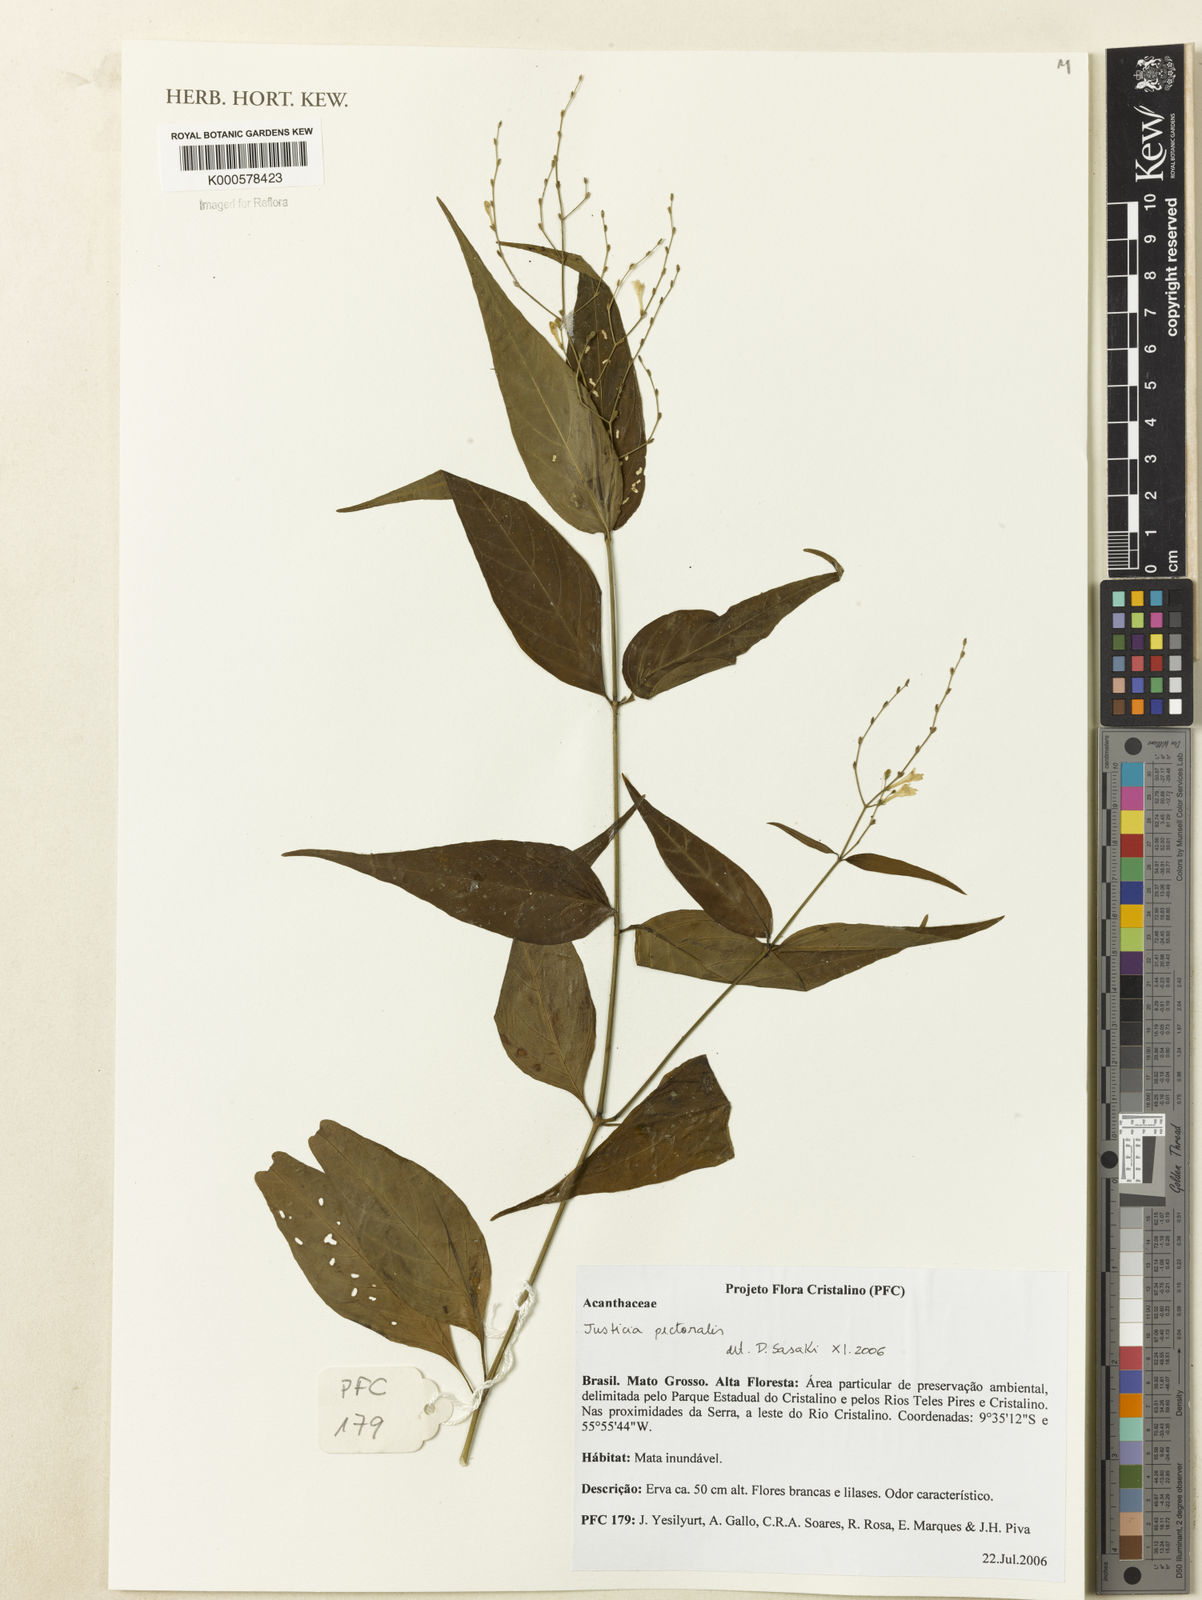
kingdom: Plantae
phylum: Tracheophyta
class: Magnoliopsida
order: Lamiales
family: Acanthaceae
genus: Dianthera
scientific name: Dianthera pectoralis
